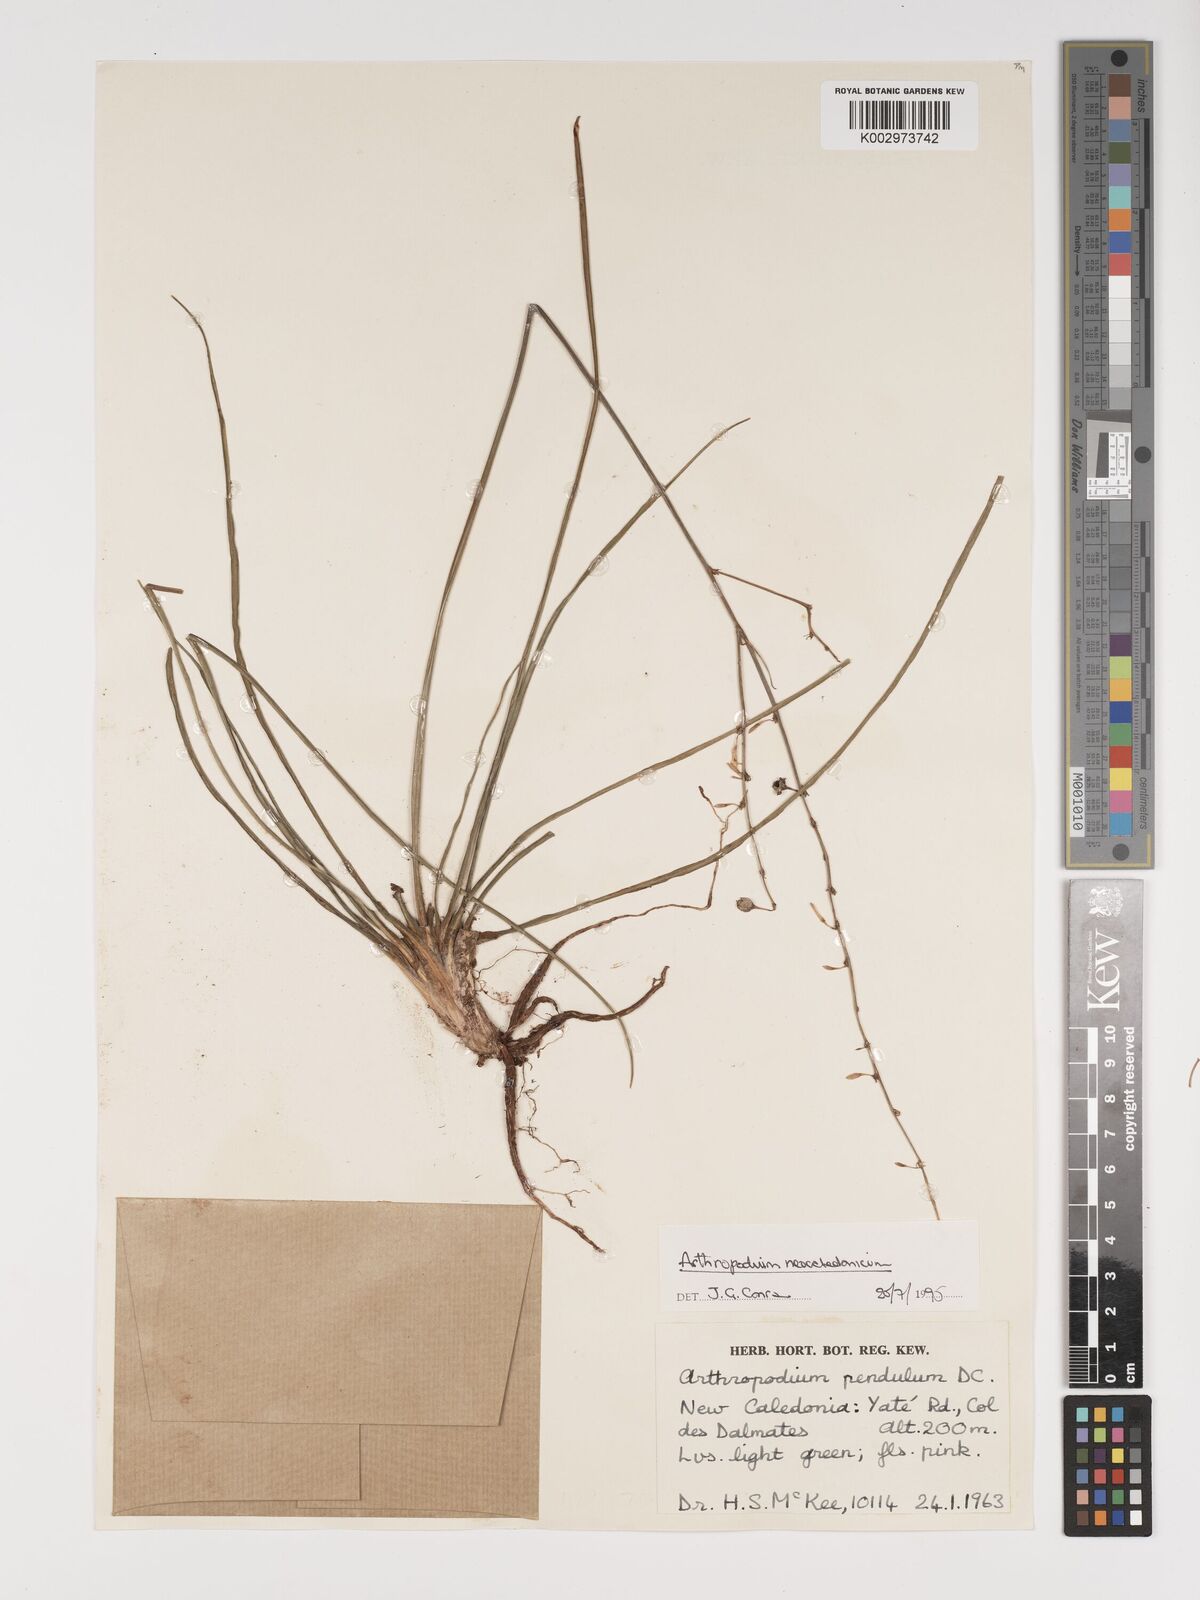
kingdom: Plantae
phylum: Tracheophyta
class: Liliopsida
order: Asparagales
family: Asparagaceae
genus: Arthropodium
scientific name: Arthropodium neocaledonicum
